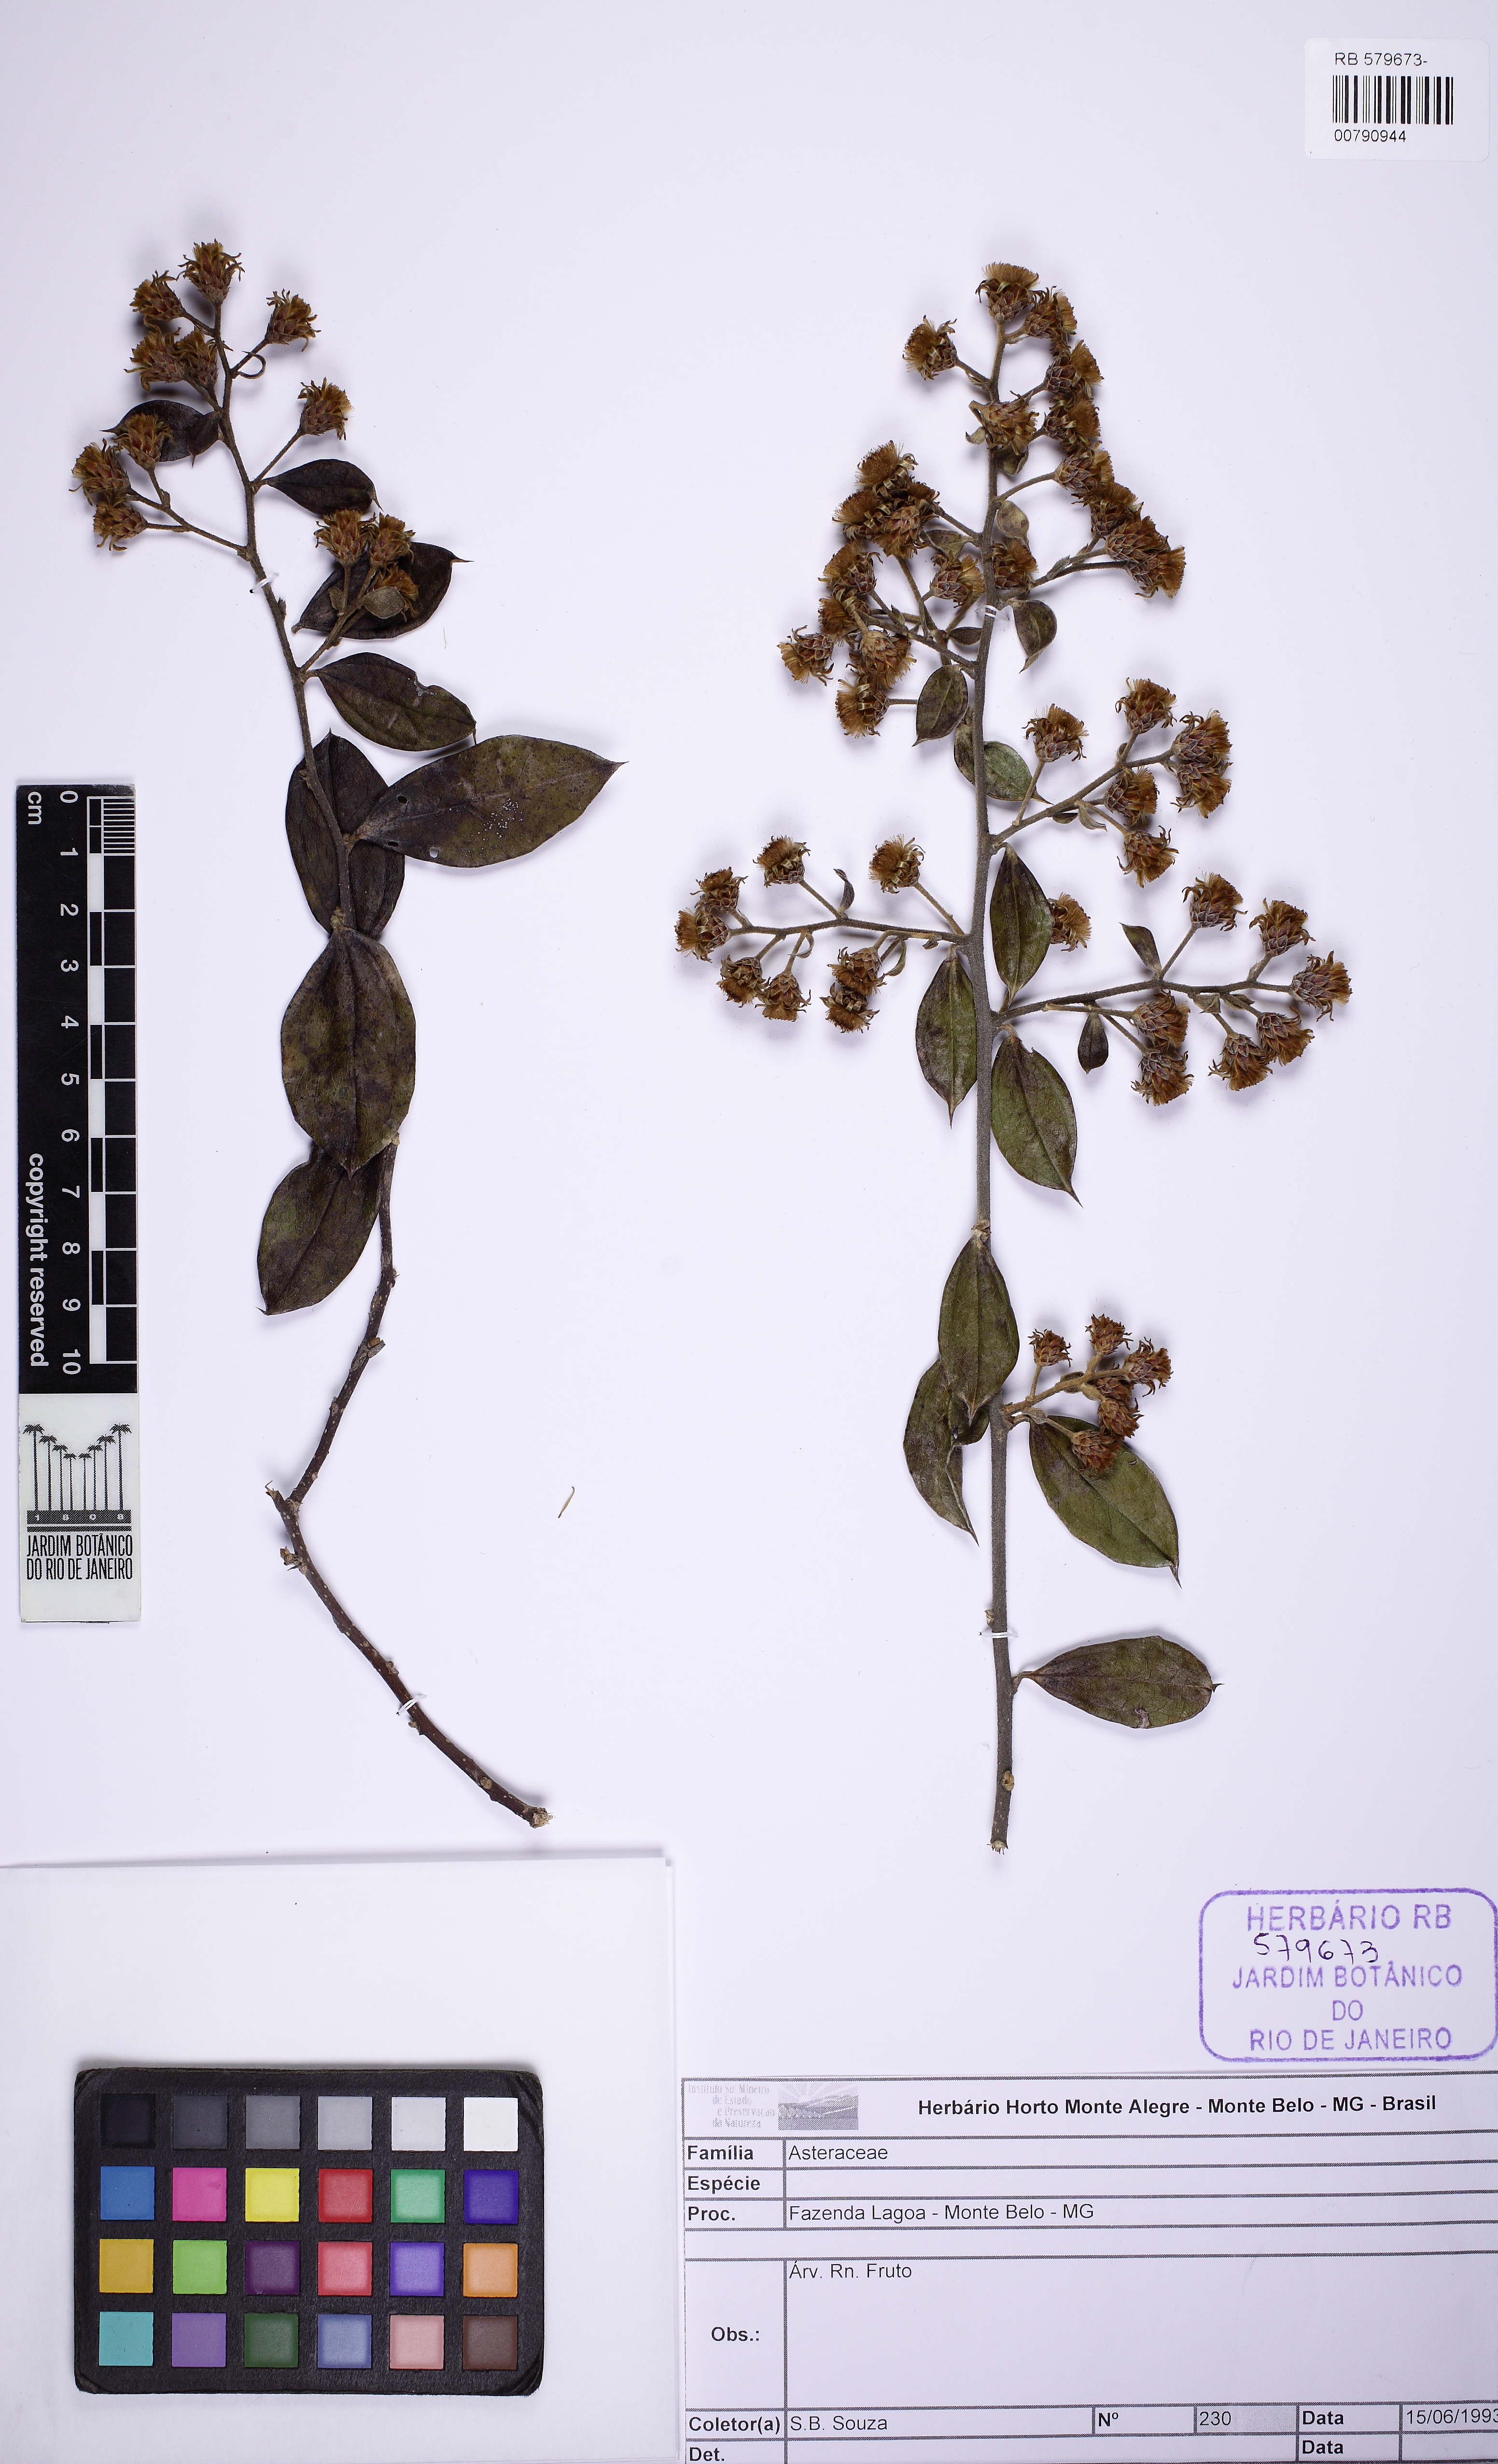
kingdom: Plantae
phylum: Tracheophyta
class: Magnoliopsida
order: Asterales
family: Asteraceae
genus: Dasyphyllum
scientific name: Dasyphyllum
